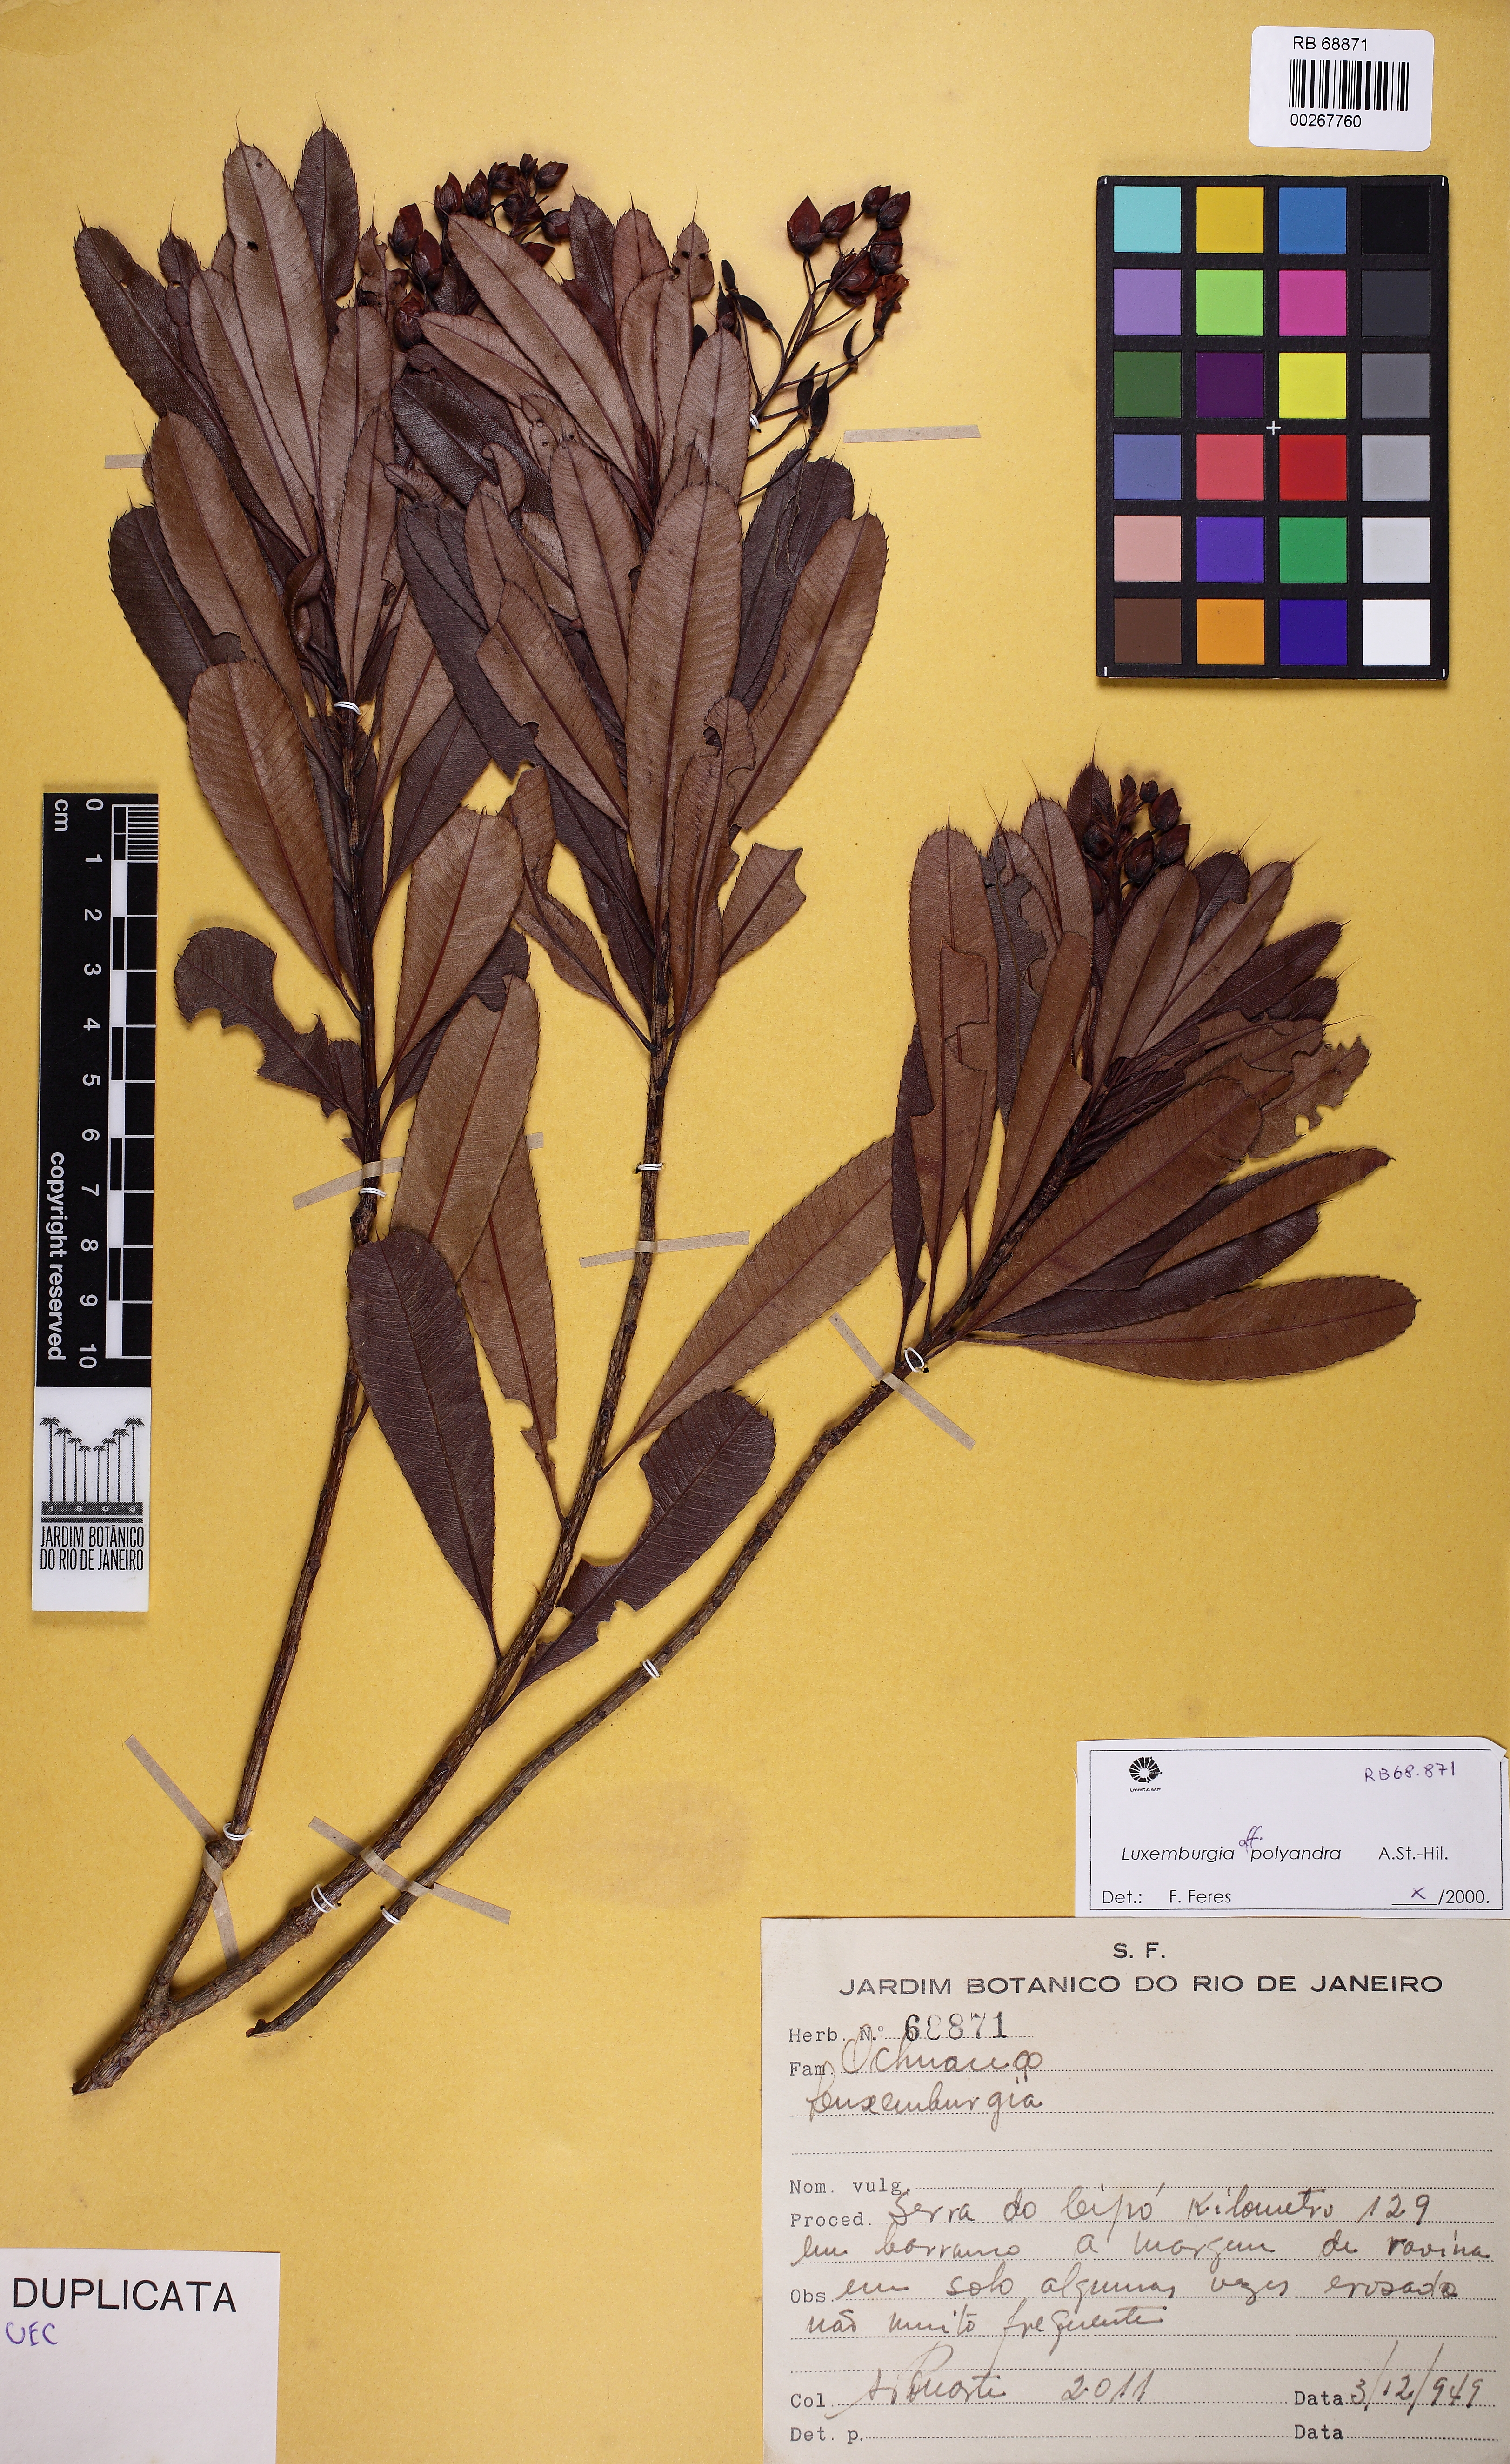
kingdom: Plantae
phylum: Tracheophyta
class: Magnoliopsida
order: Malpighiales
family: Ochnaceae
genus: Luxemburgia
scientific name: Luxemburgia polyandra
